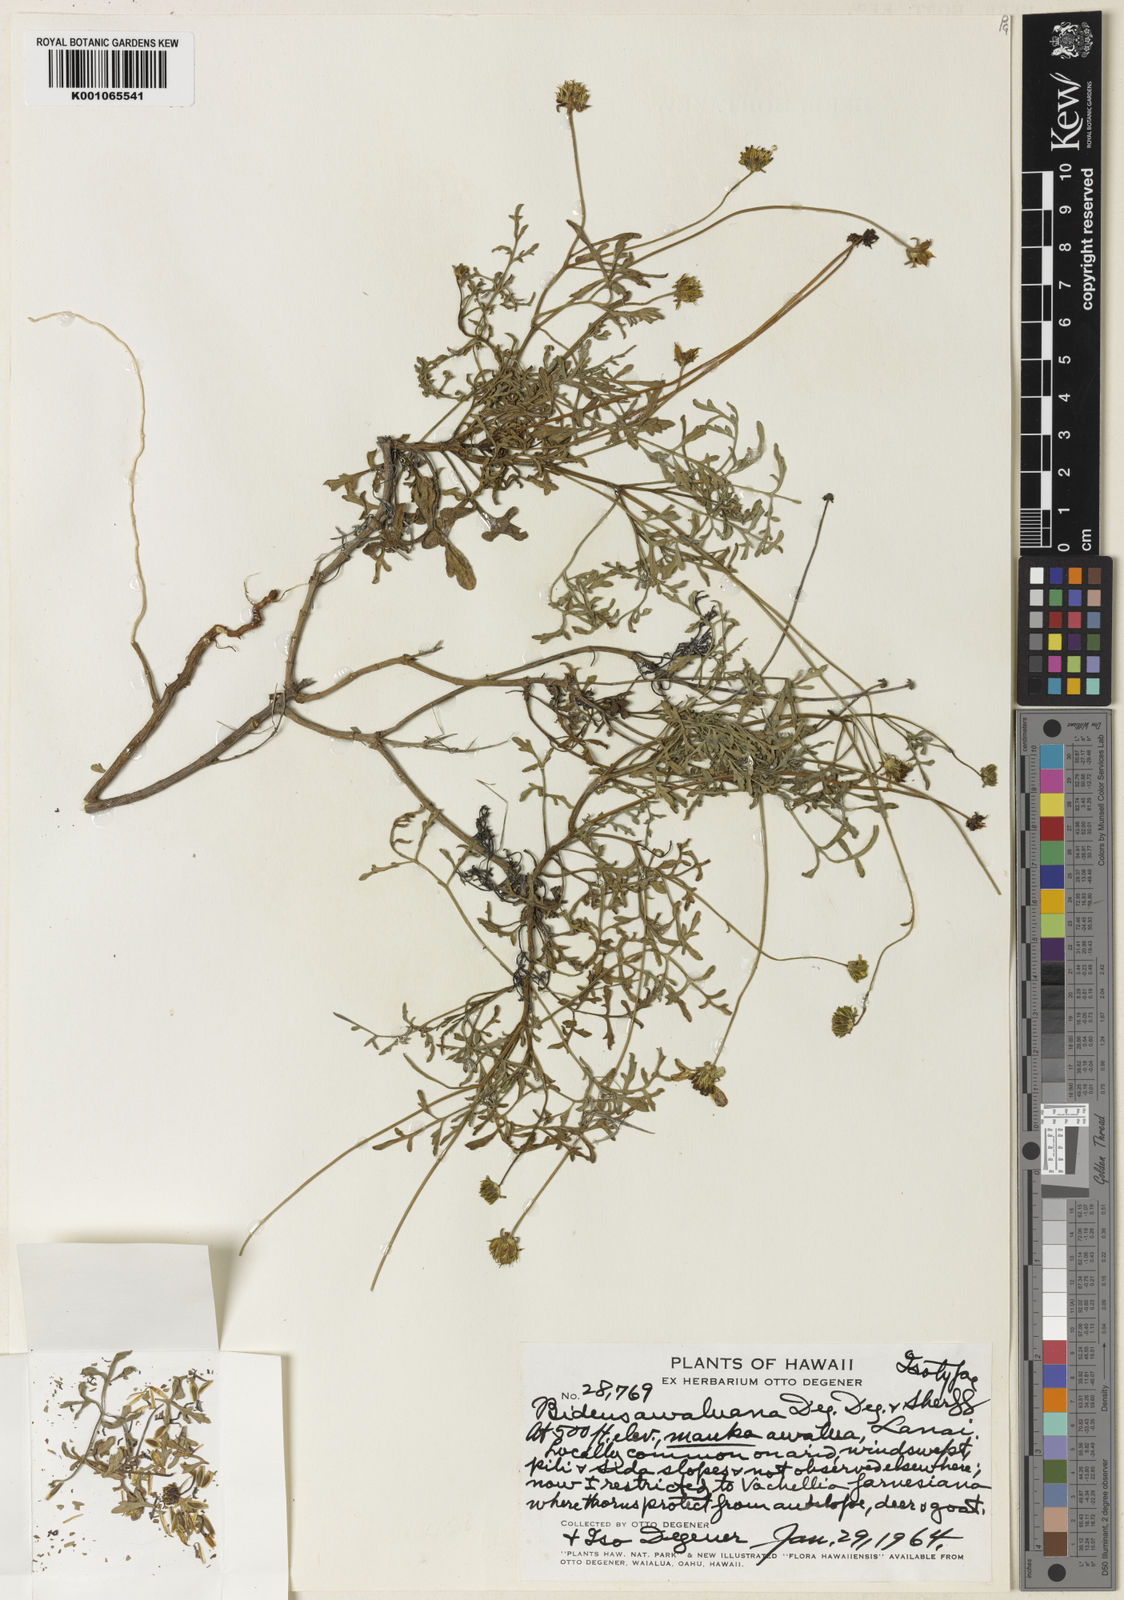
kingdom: Plantae
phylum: Tracheophyta
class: Magnoliopsida
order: Asterales
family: Asteraceae
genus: Bidens
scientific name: Bidens mauiensis
